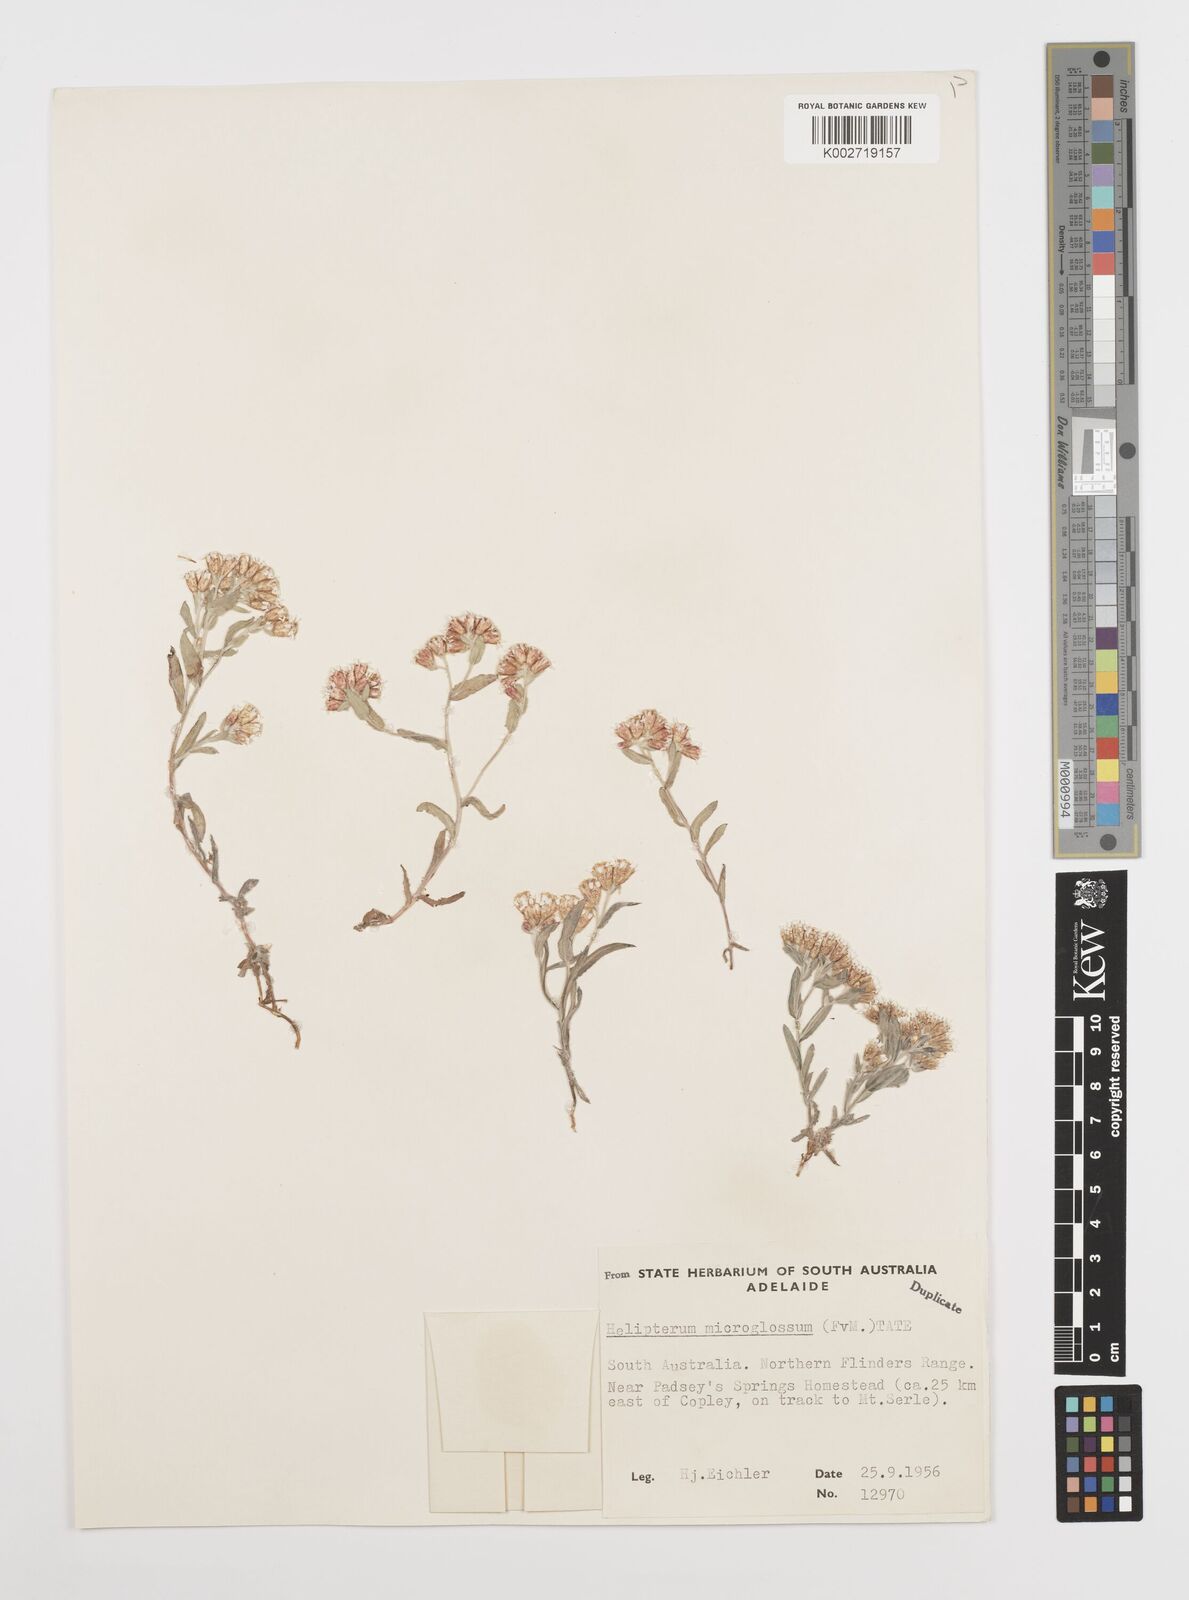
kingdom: Plantae
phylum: Tracheophyta
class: Magnoliopsida
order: Asterales
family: Asteraceae
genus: Rhodanthe
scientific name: Rhodanthe microglossa
